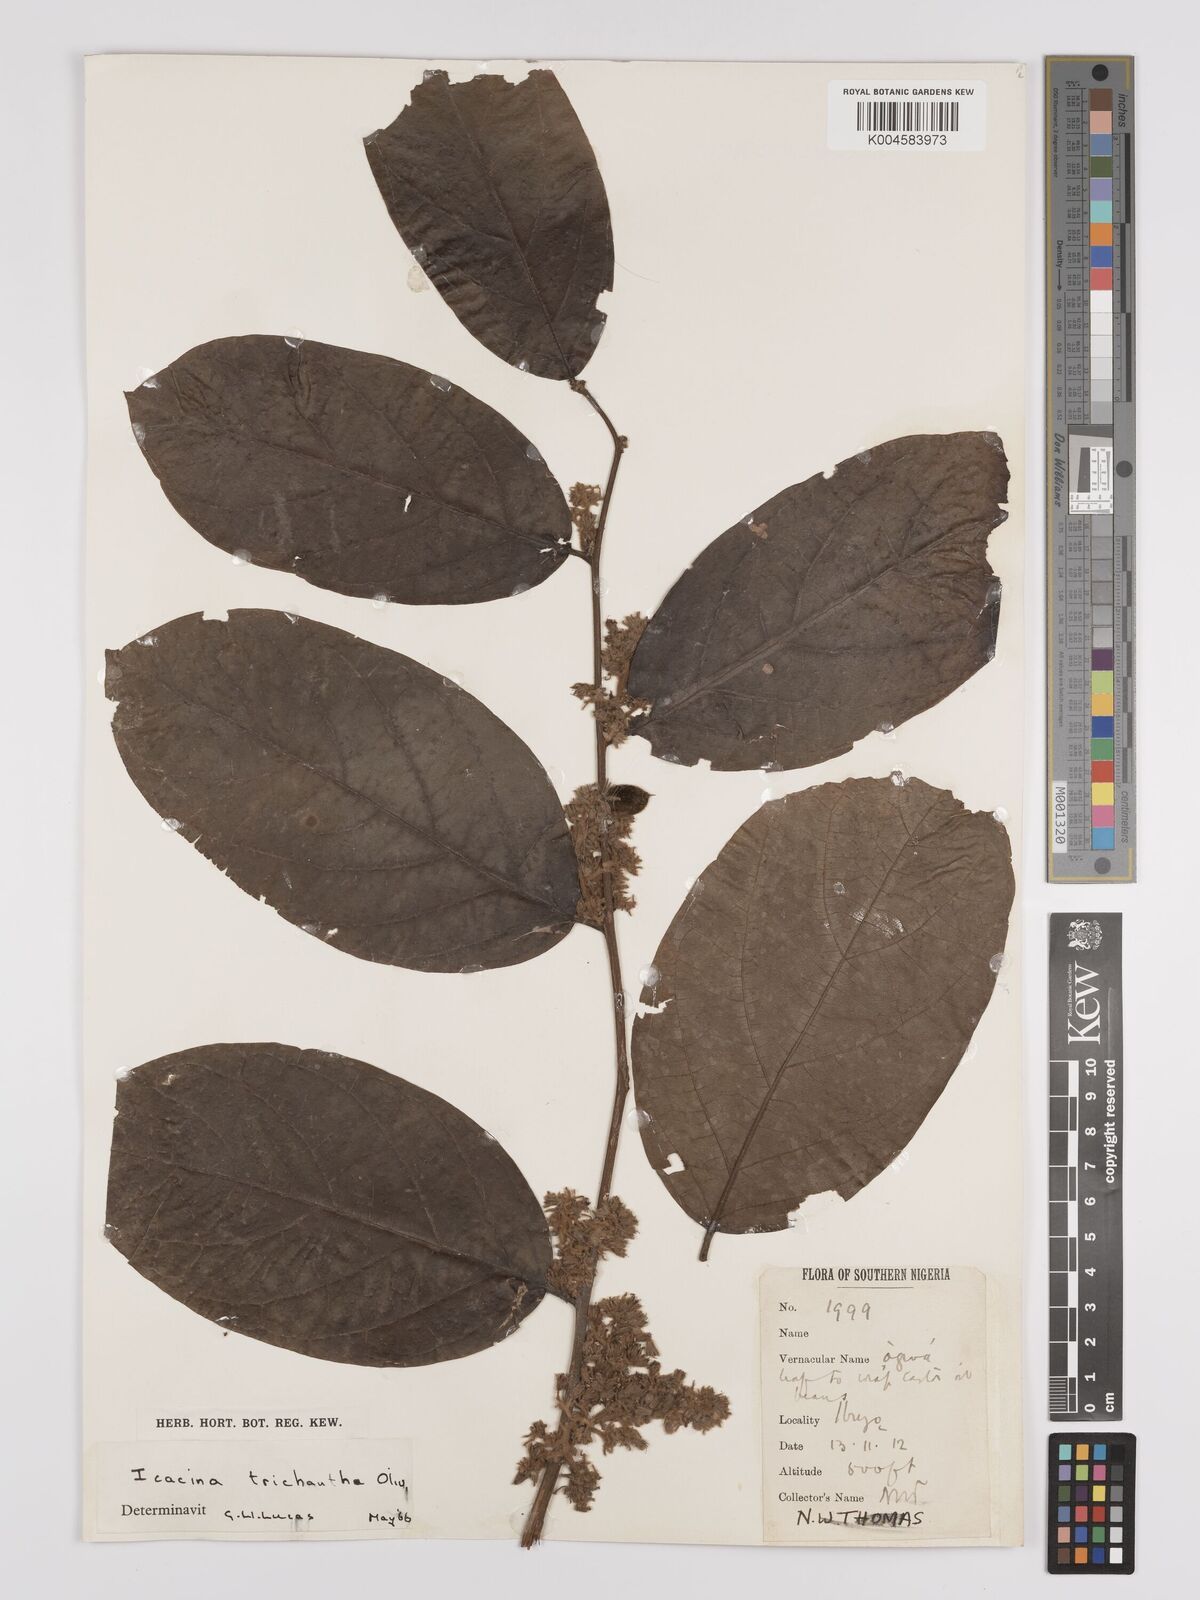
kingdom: Plantae
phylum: Tracheophyta
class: Magnoliopsida
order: Icacinales
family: Icacinaceae
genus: Icacina
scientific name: Icacina trichantha
